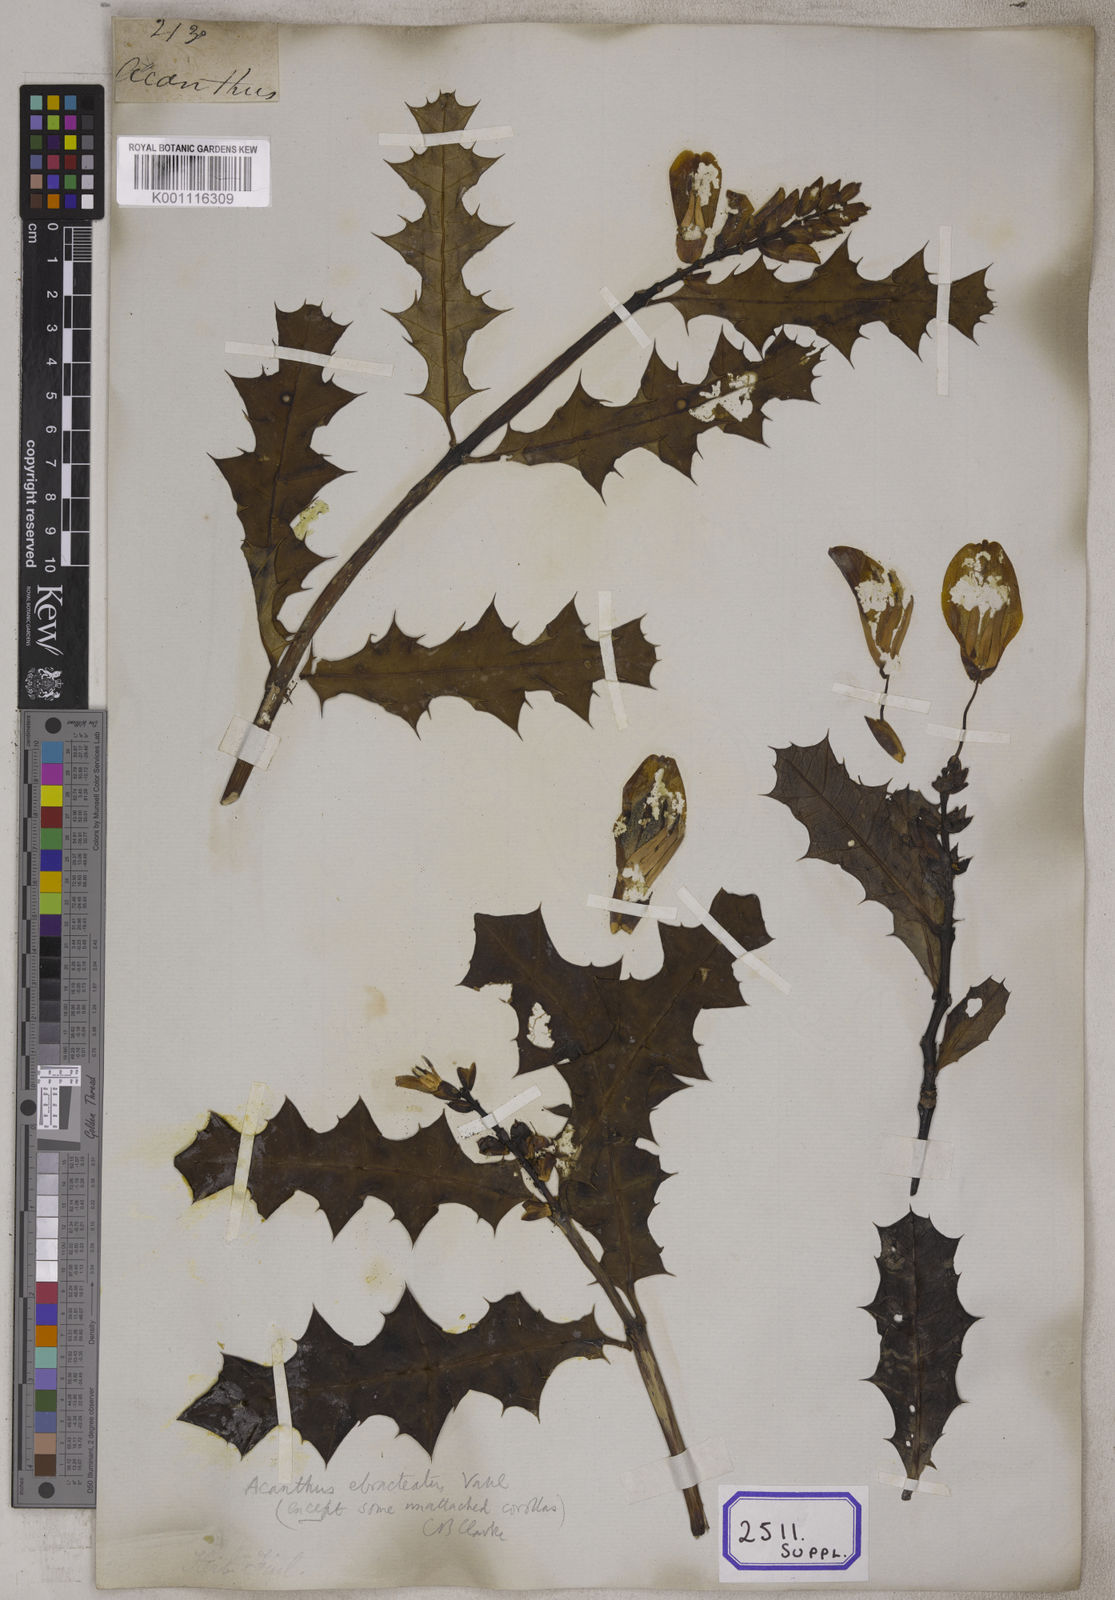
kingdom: Plantae
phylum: Tracheophyta
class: Magnoliopsida
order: Lamiales
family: Acanthaceae
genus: Acanthus
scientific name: Acanthus ilicifolius
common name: Holy mangrove
